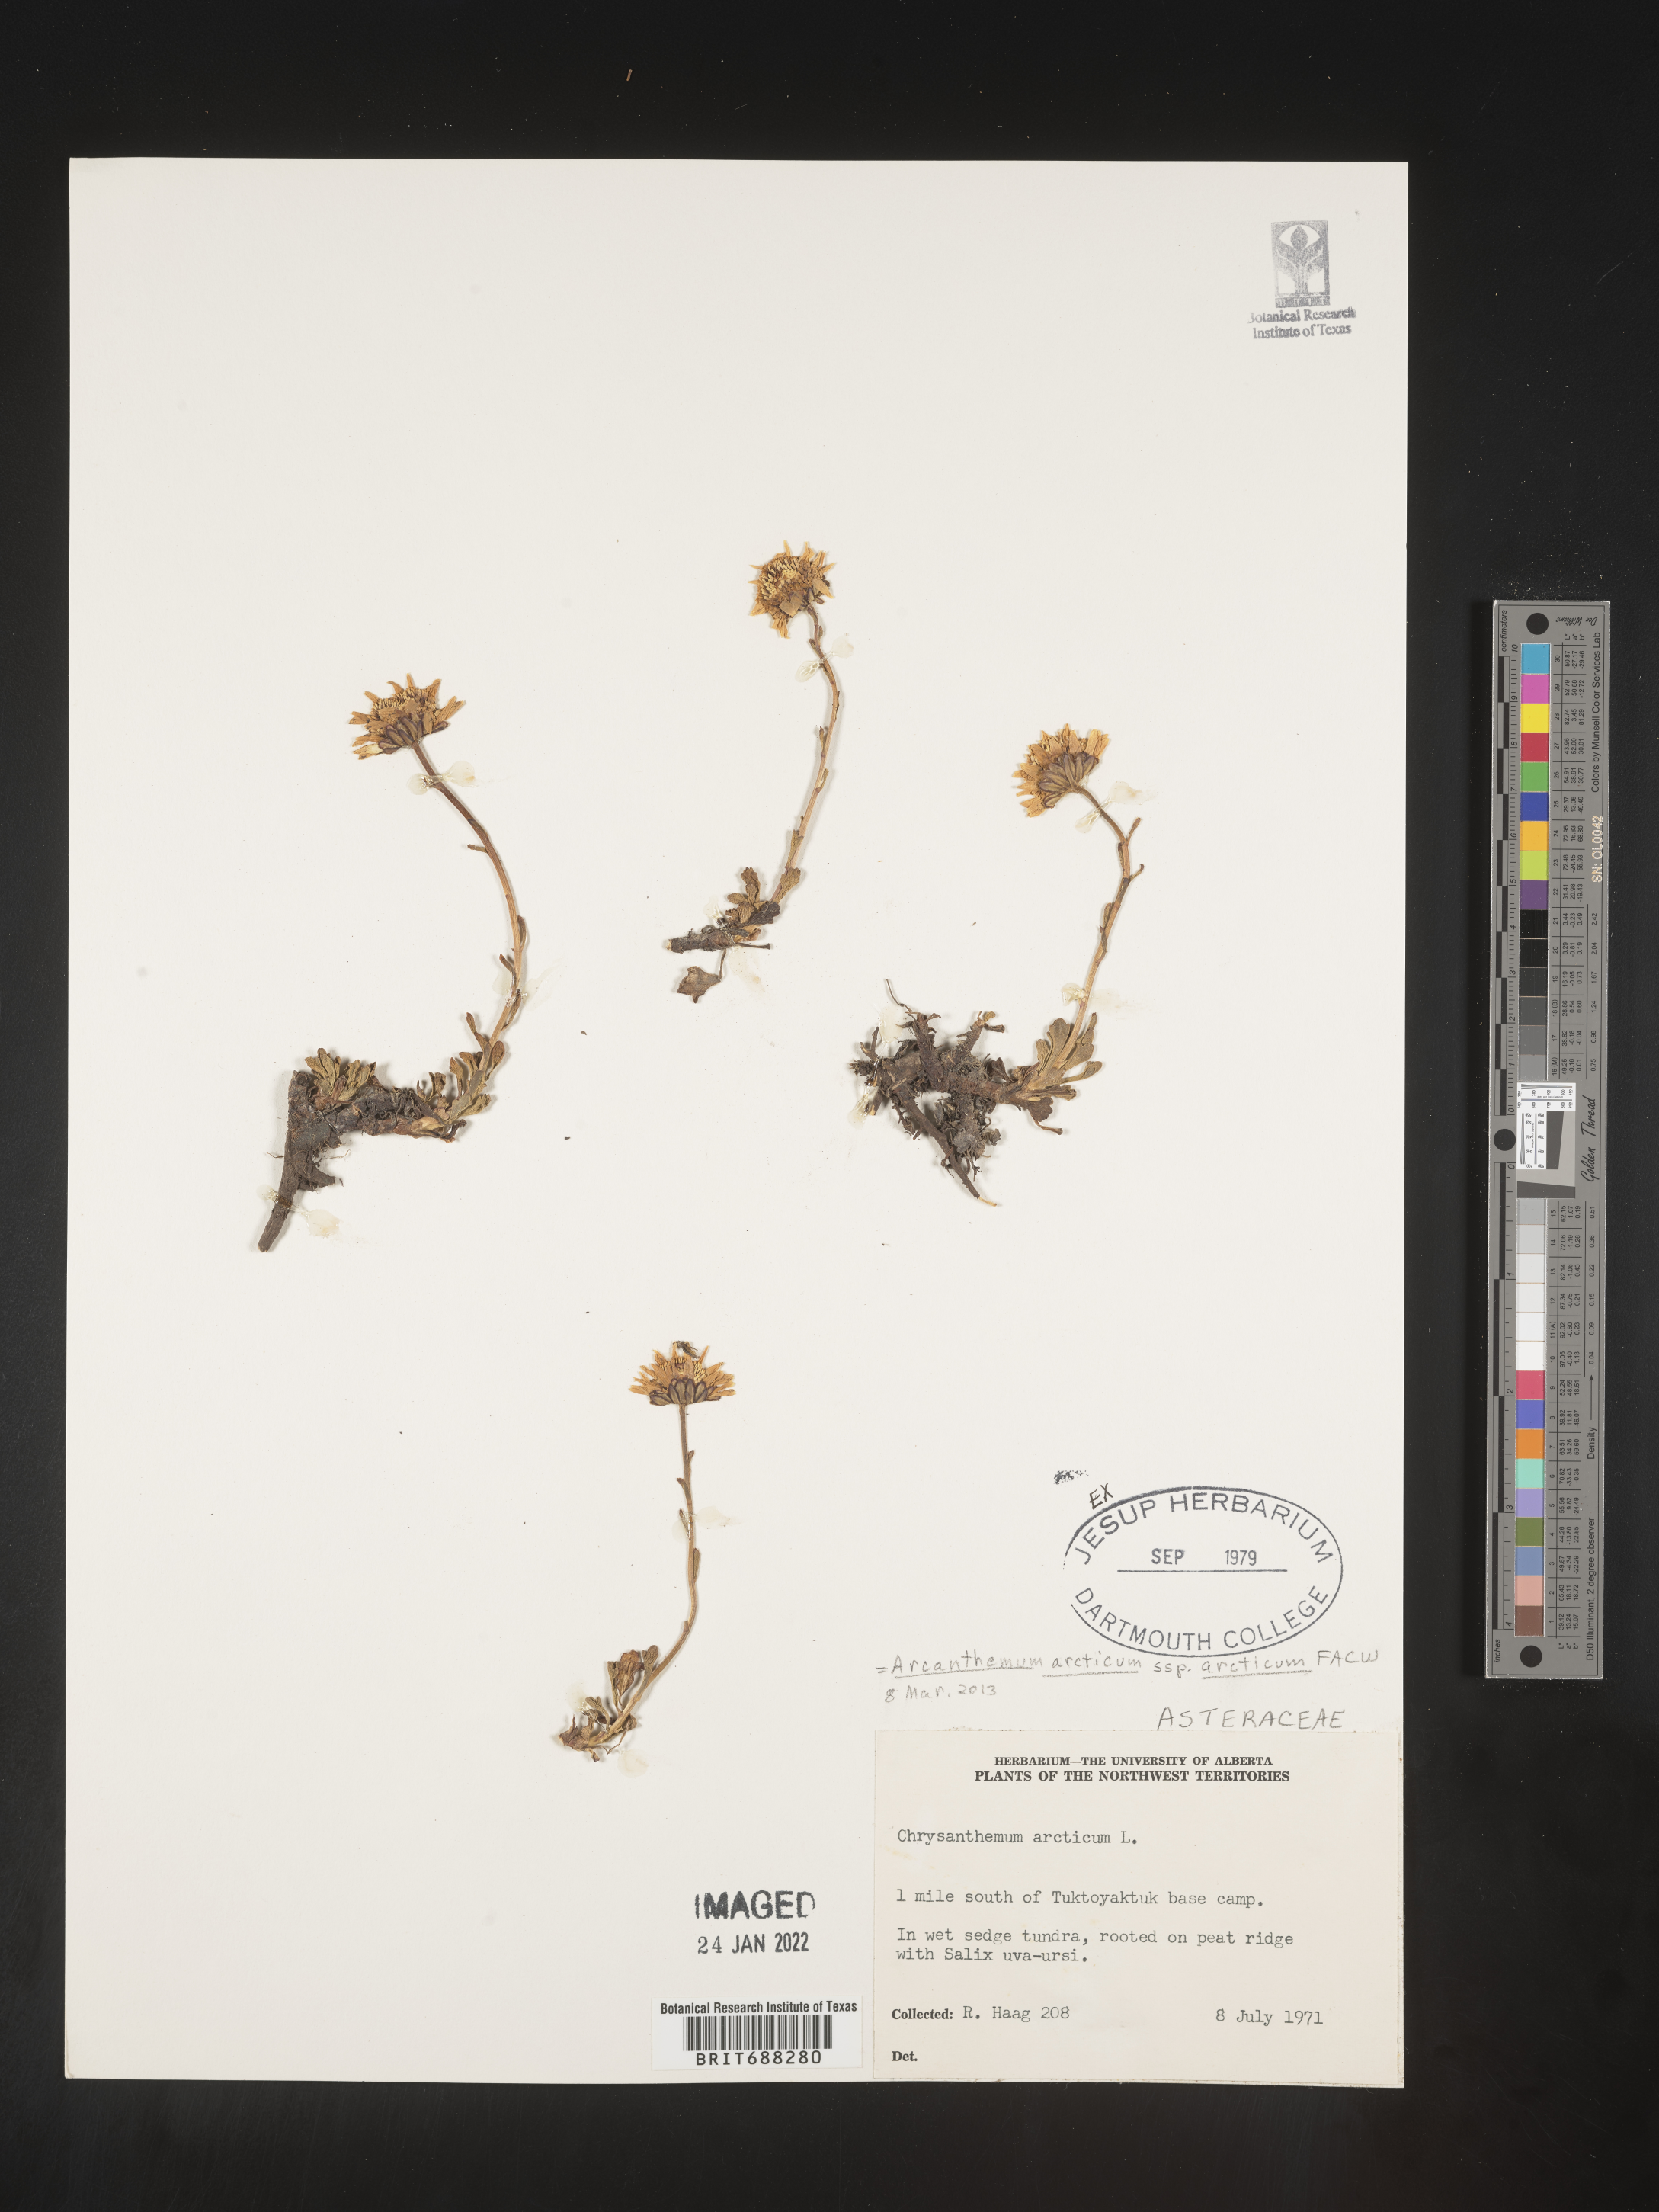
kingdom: Plantae
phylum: Tracheophyta
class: Magnoliopsida
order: Asterales
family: Asteraceae
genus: Chrysanthemum
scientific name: Chrysanthemum
